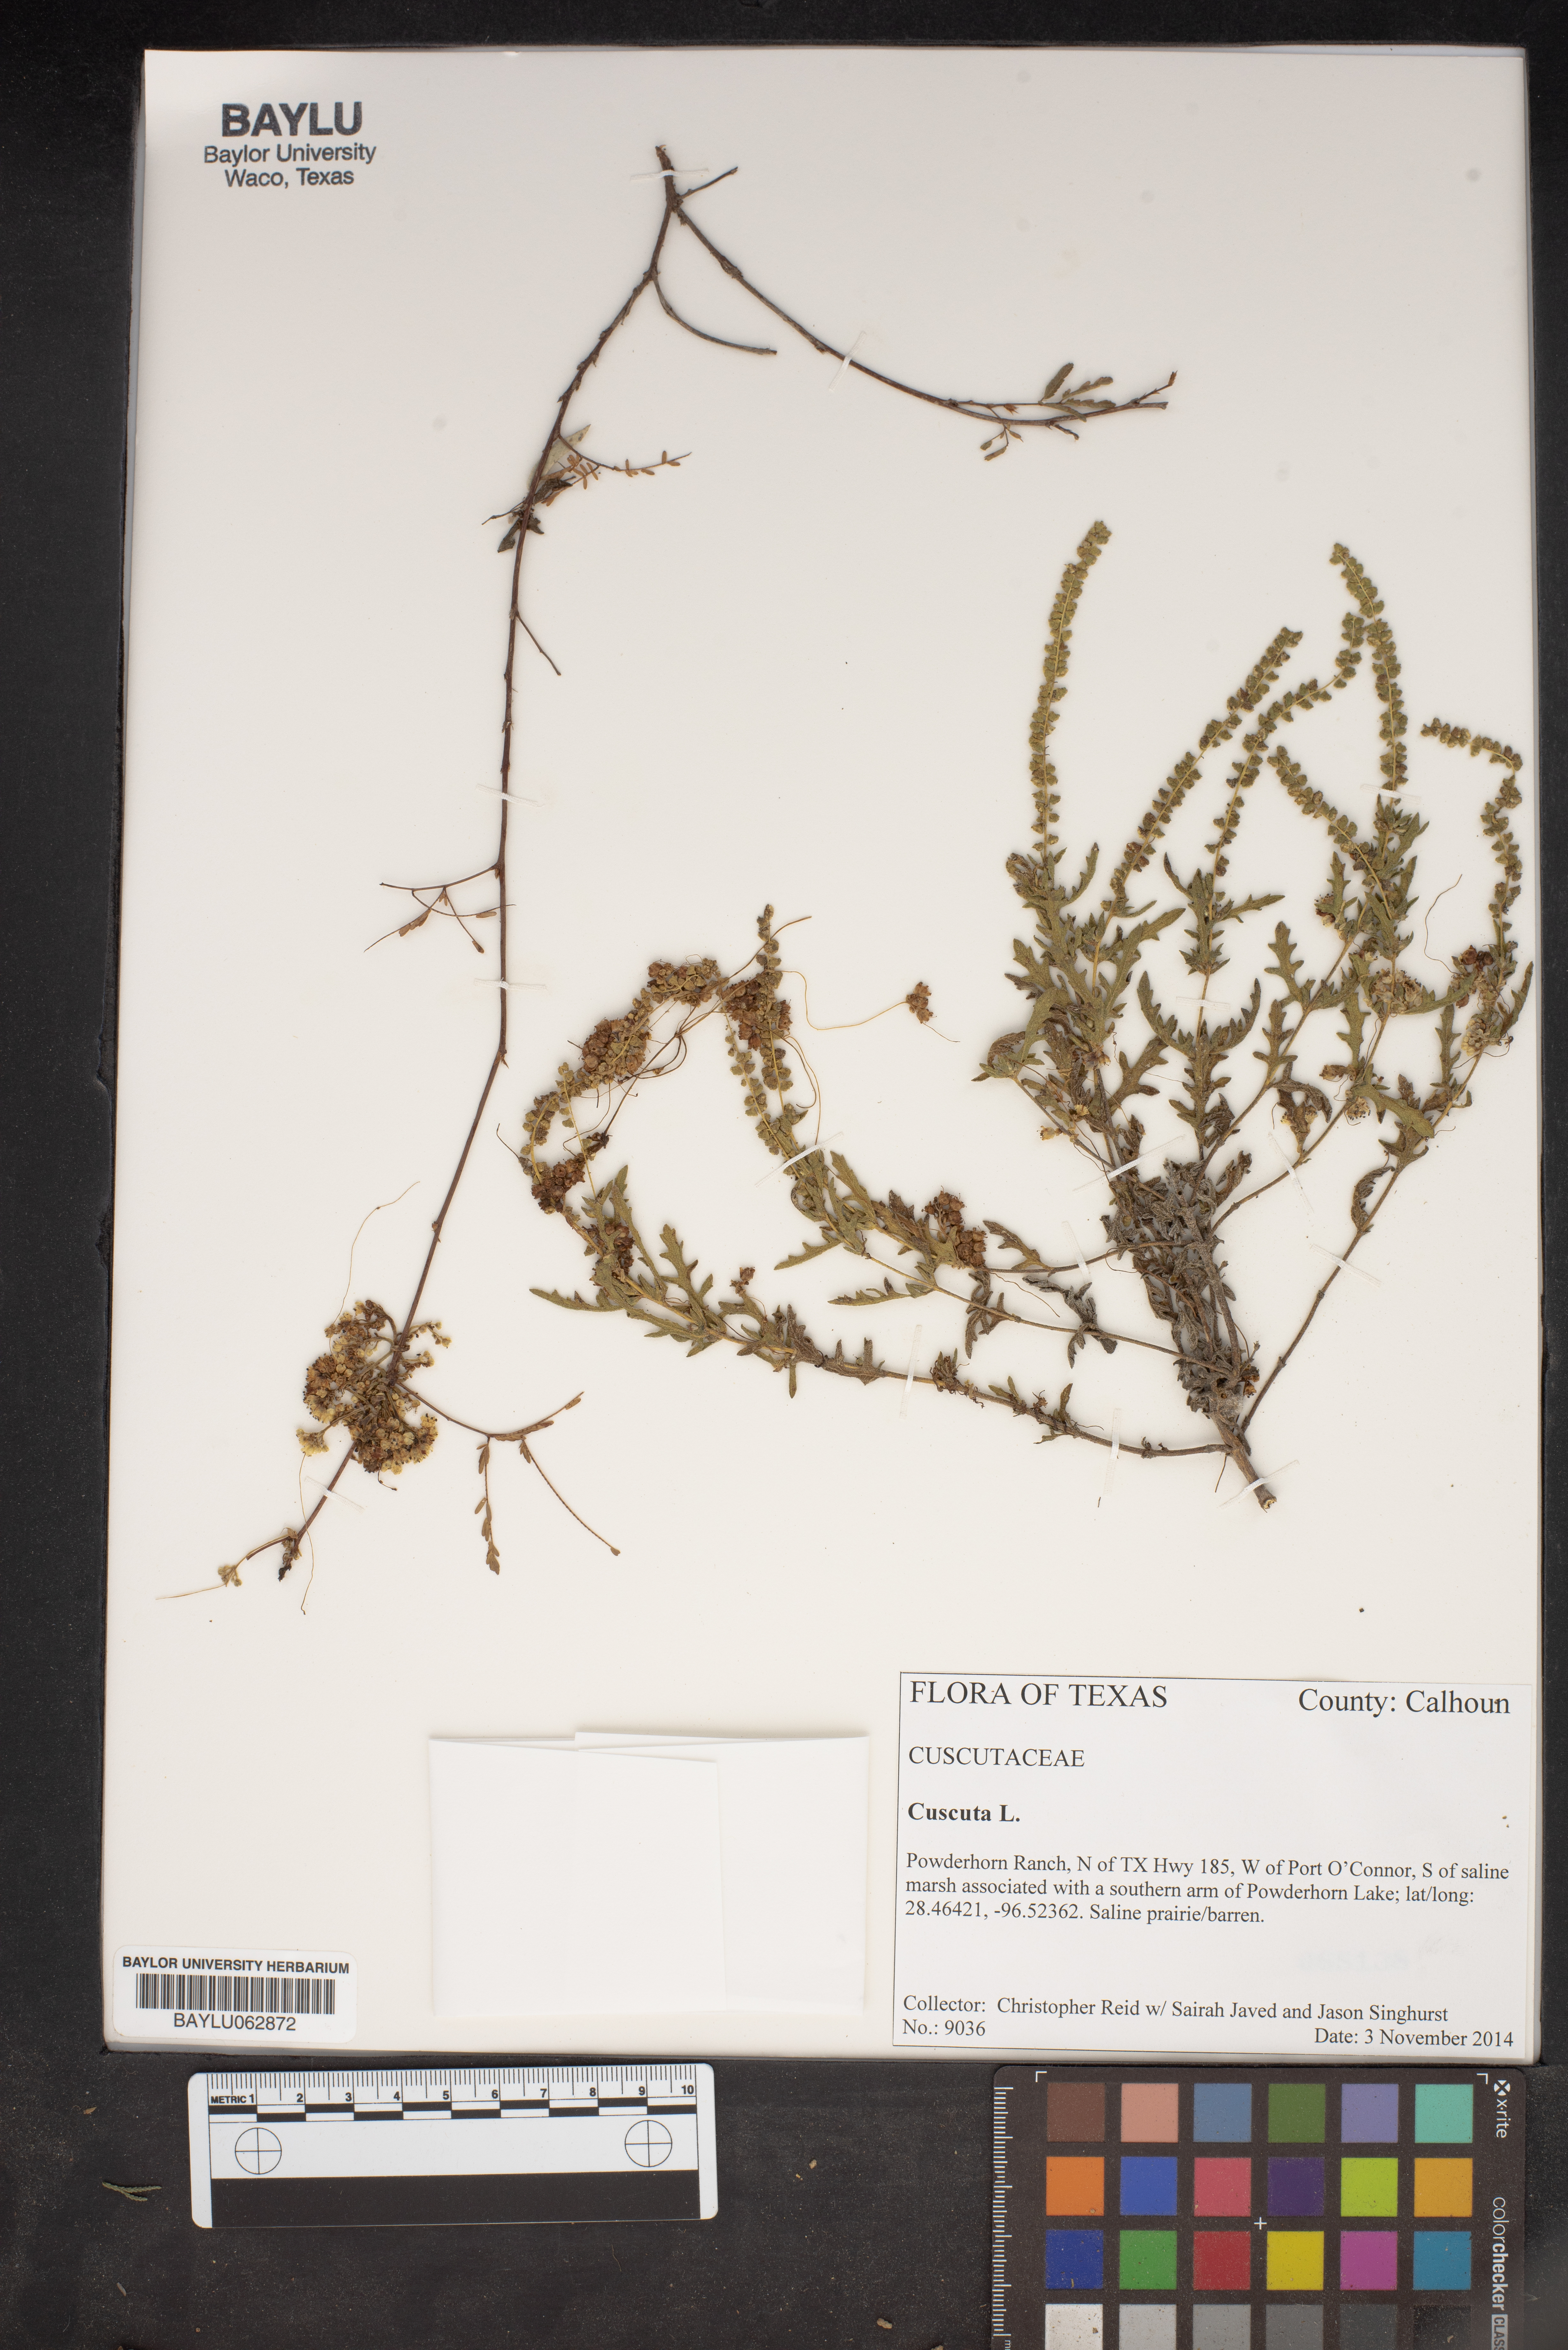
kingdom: Plantae
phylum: Tracheophyta
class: Magnoliopsida
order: Solanales
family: Convolvulaceae
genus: Cuscuta
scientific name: Cuscuta
